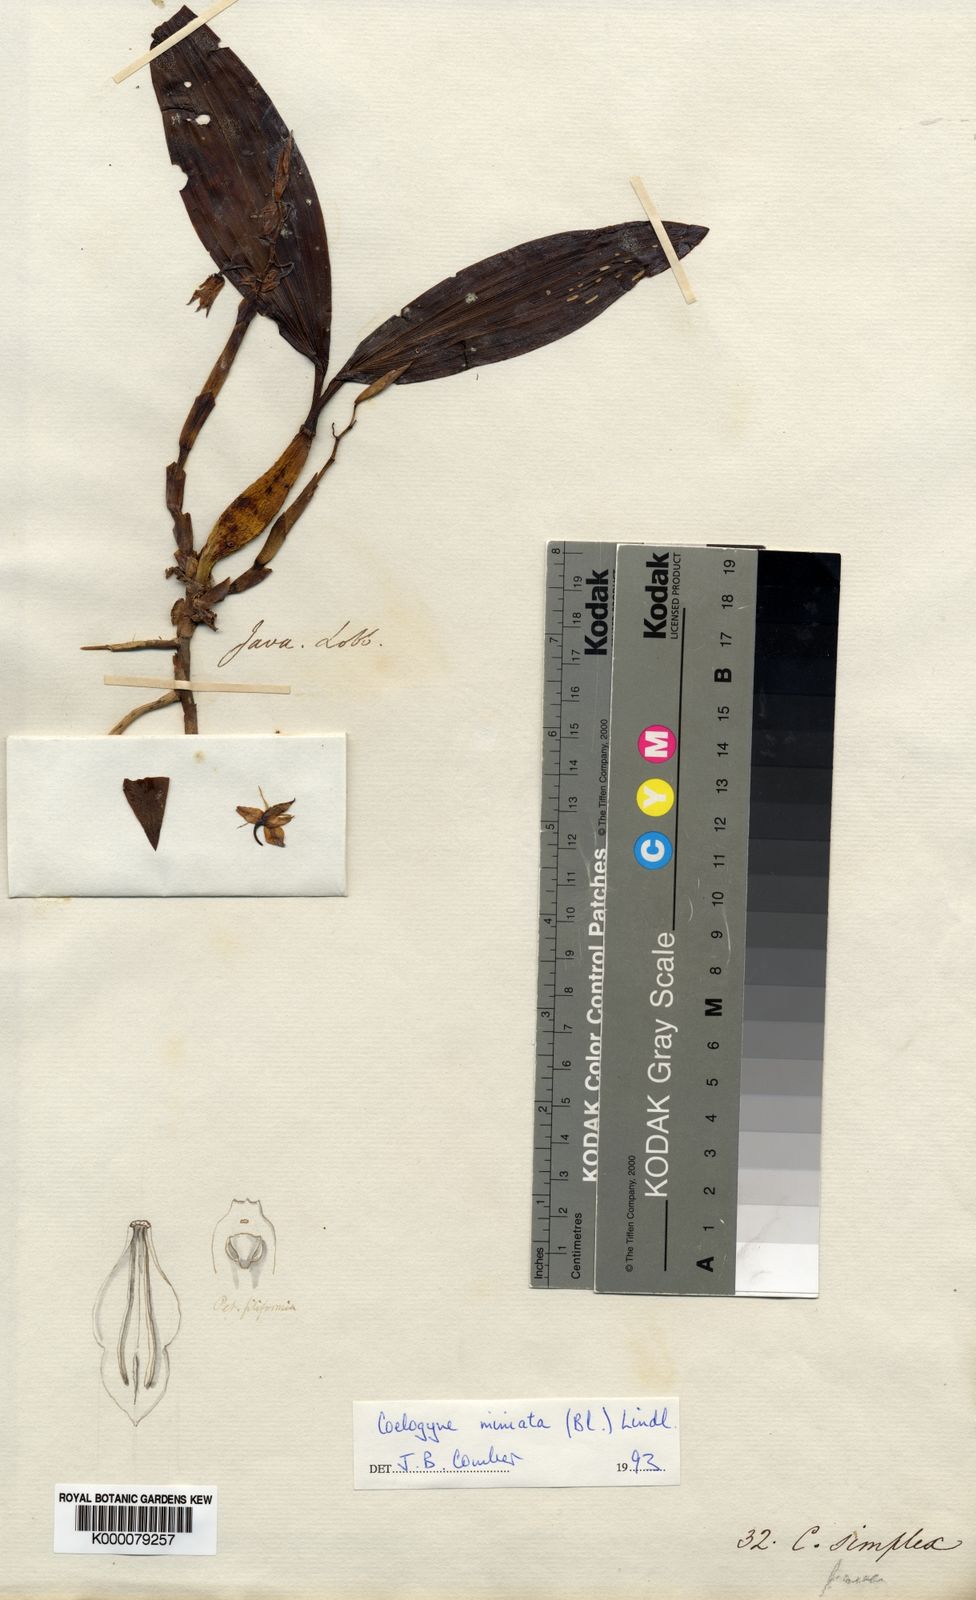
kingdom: Plantae
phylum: Tracheophyta
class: Liliopsida
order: Asparagales
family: Orchidaceae
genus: Coelogyne
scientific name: Coelogyne miniata
